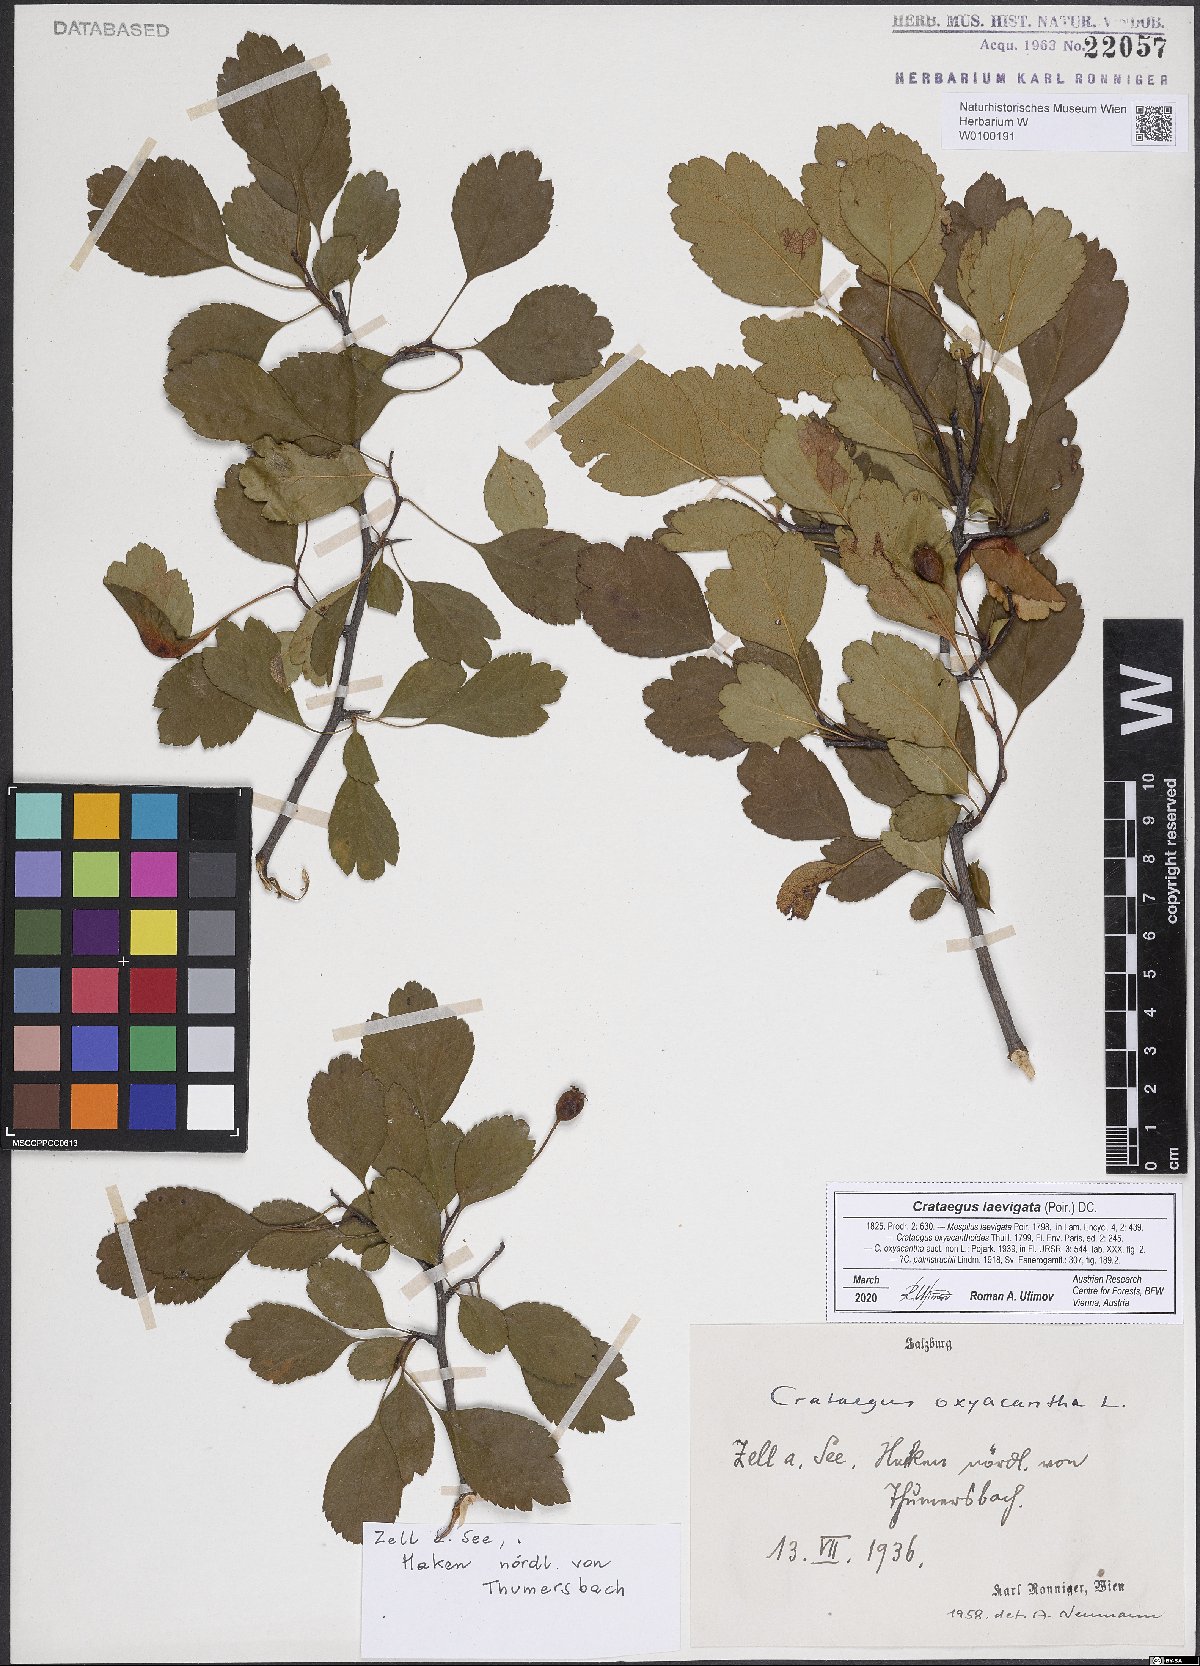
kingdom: Plantae
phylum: Tracheophyta
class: Magnoliopsida
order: Rosales
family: Rosaceae
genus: Crataegus
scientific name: Crataegus laevigata
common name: Midland hawthorn
